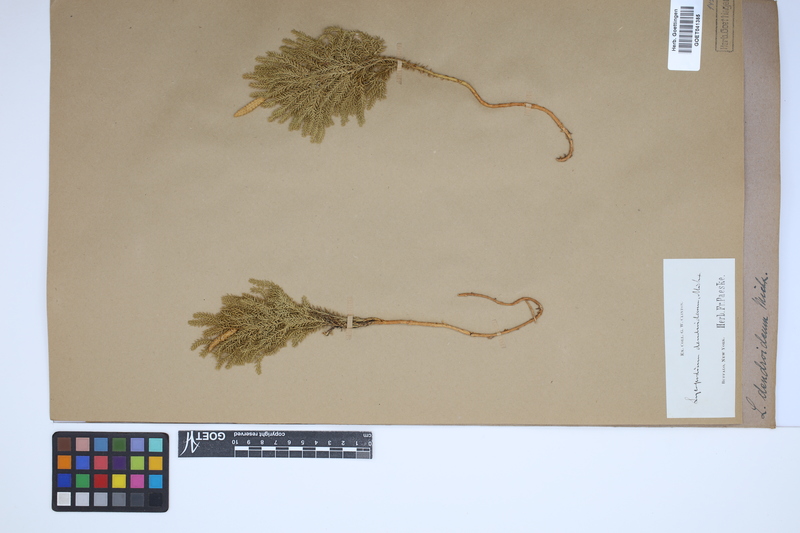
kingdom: Plantae
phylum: Tracheophyta
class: Lycopodiopsida
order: Lycopodiales
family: Lycopodiaceae
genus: Dendrolycopodium
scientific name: Dendrolycopodium dendroideum
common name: Northern tree-clubmoss
